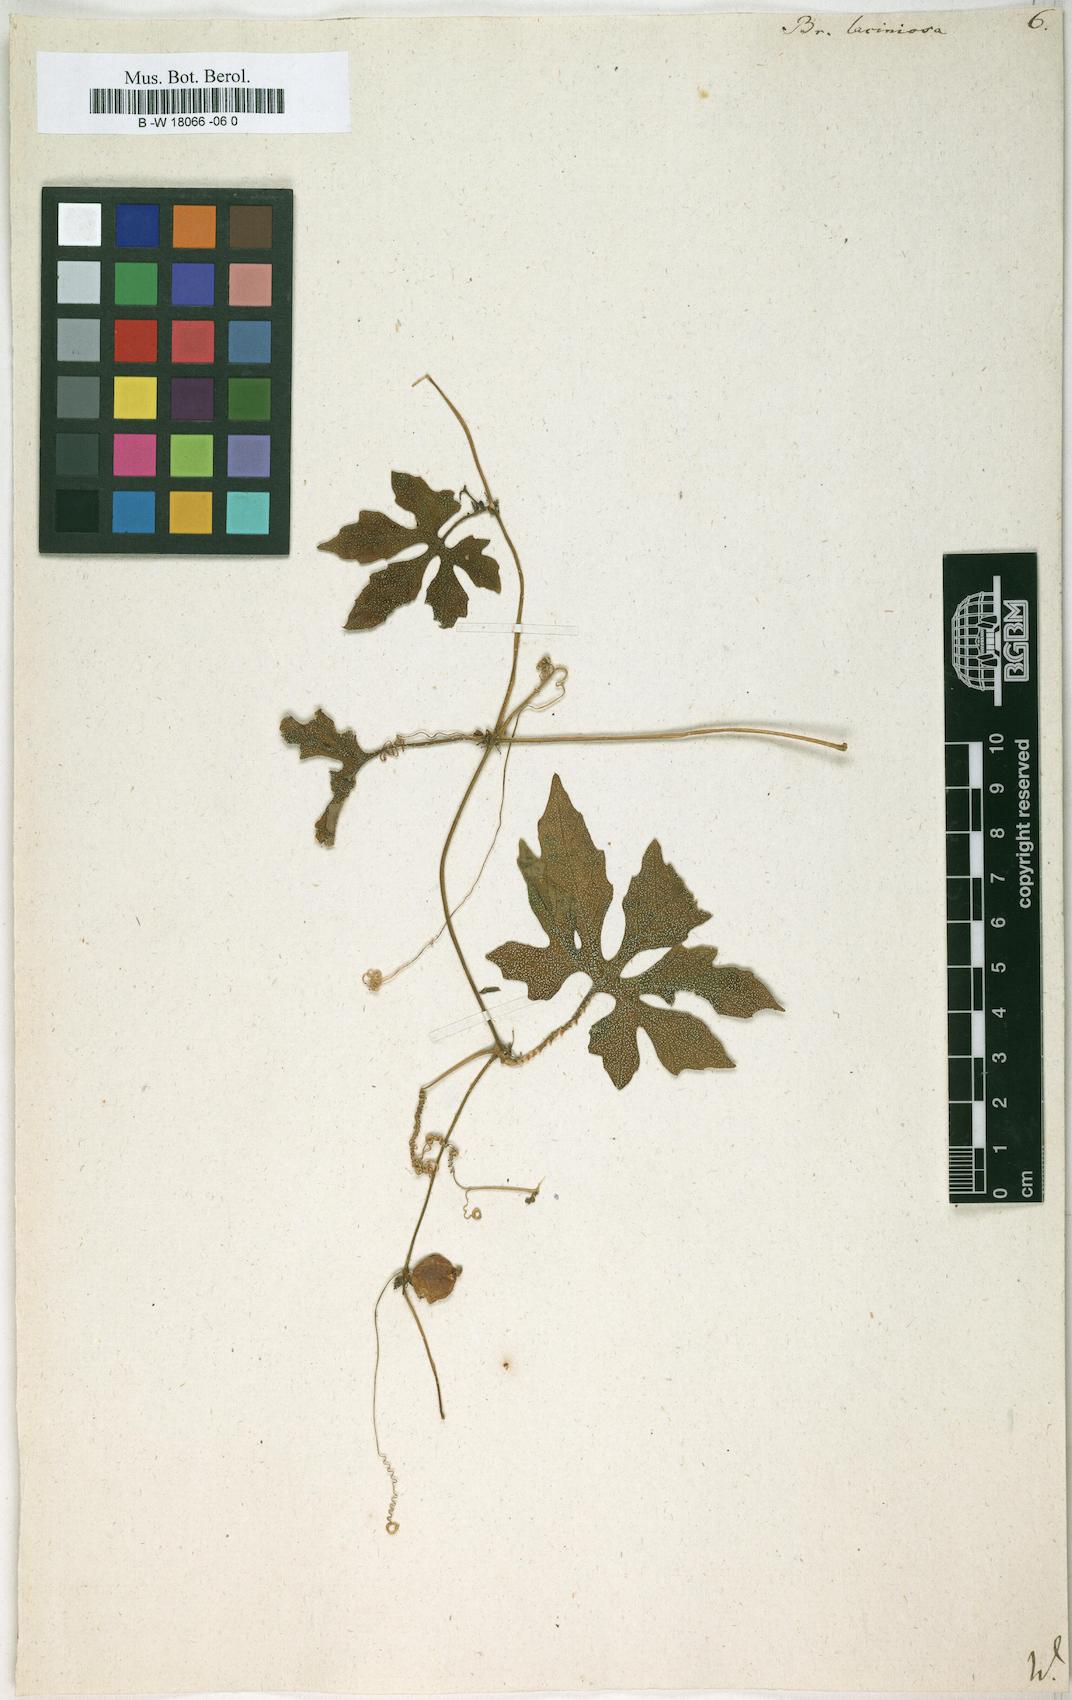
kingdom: Plantae
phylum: Tracheophyta
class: Magnoliopsida
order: Cucurbitales
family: Cucurbitaceae
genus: Diplocyclos
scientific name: Diplocyclos palmatus
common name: Striped-cucumber
